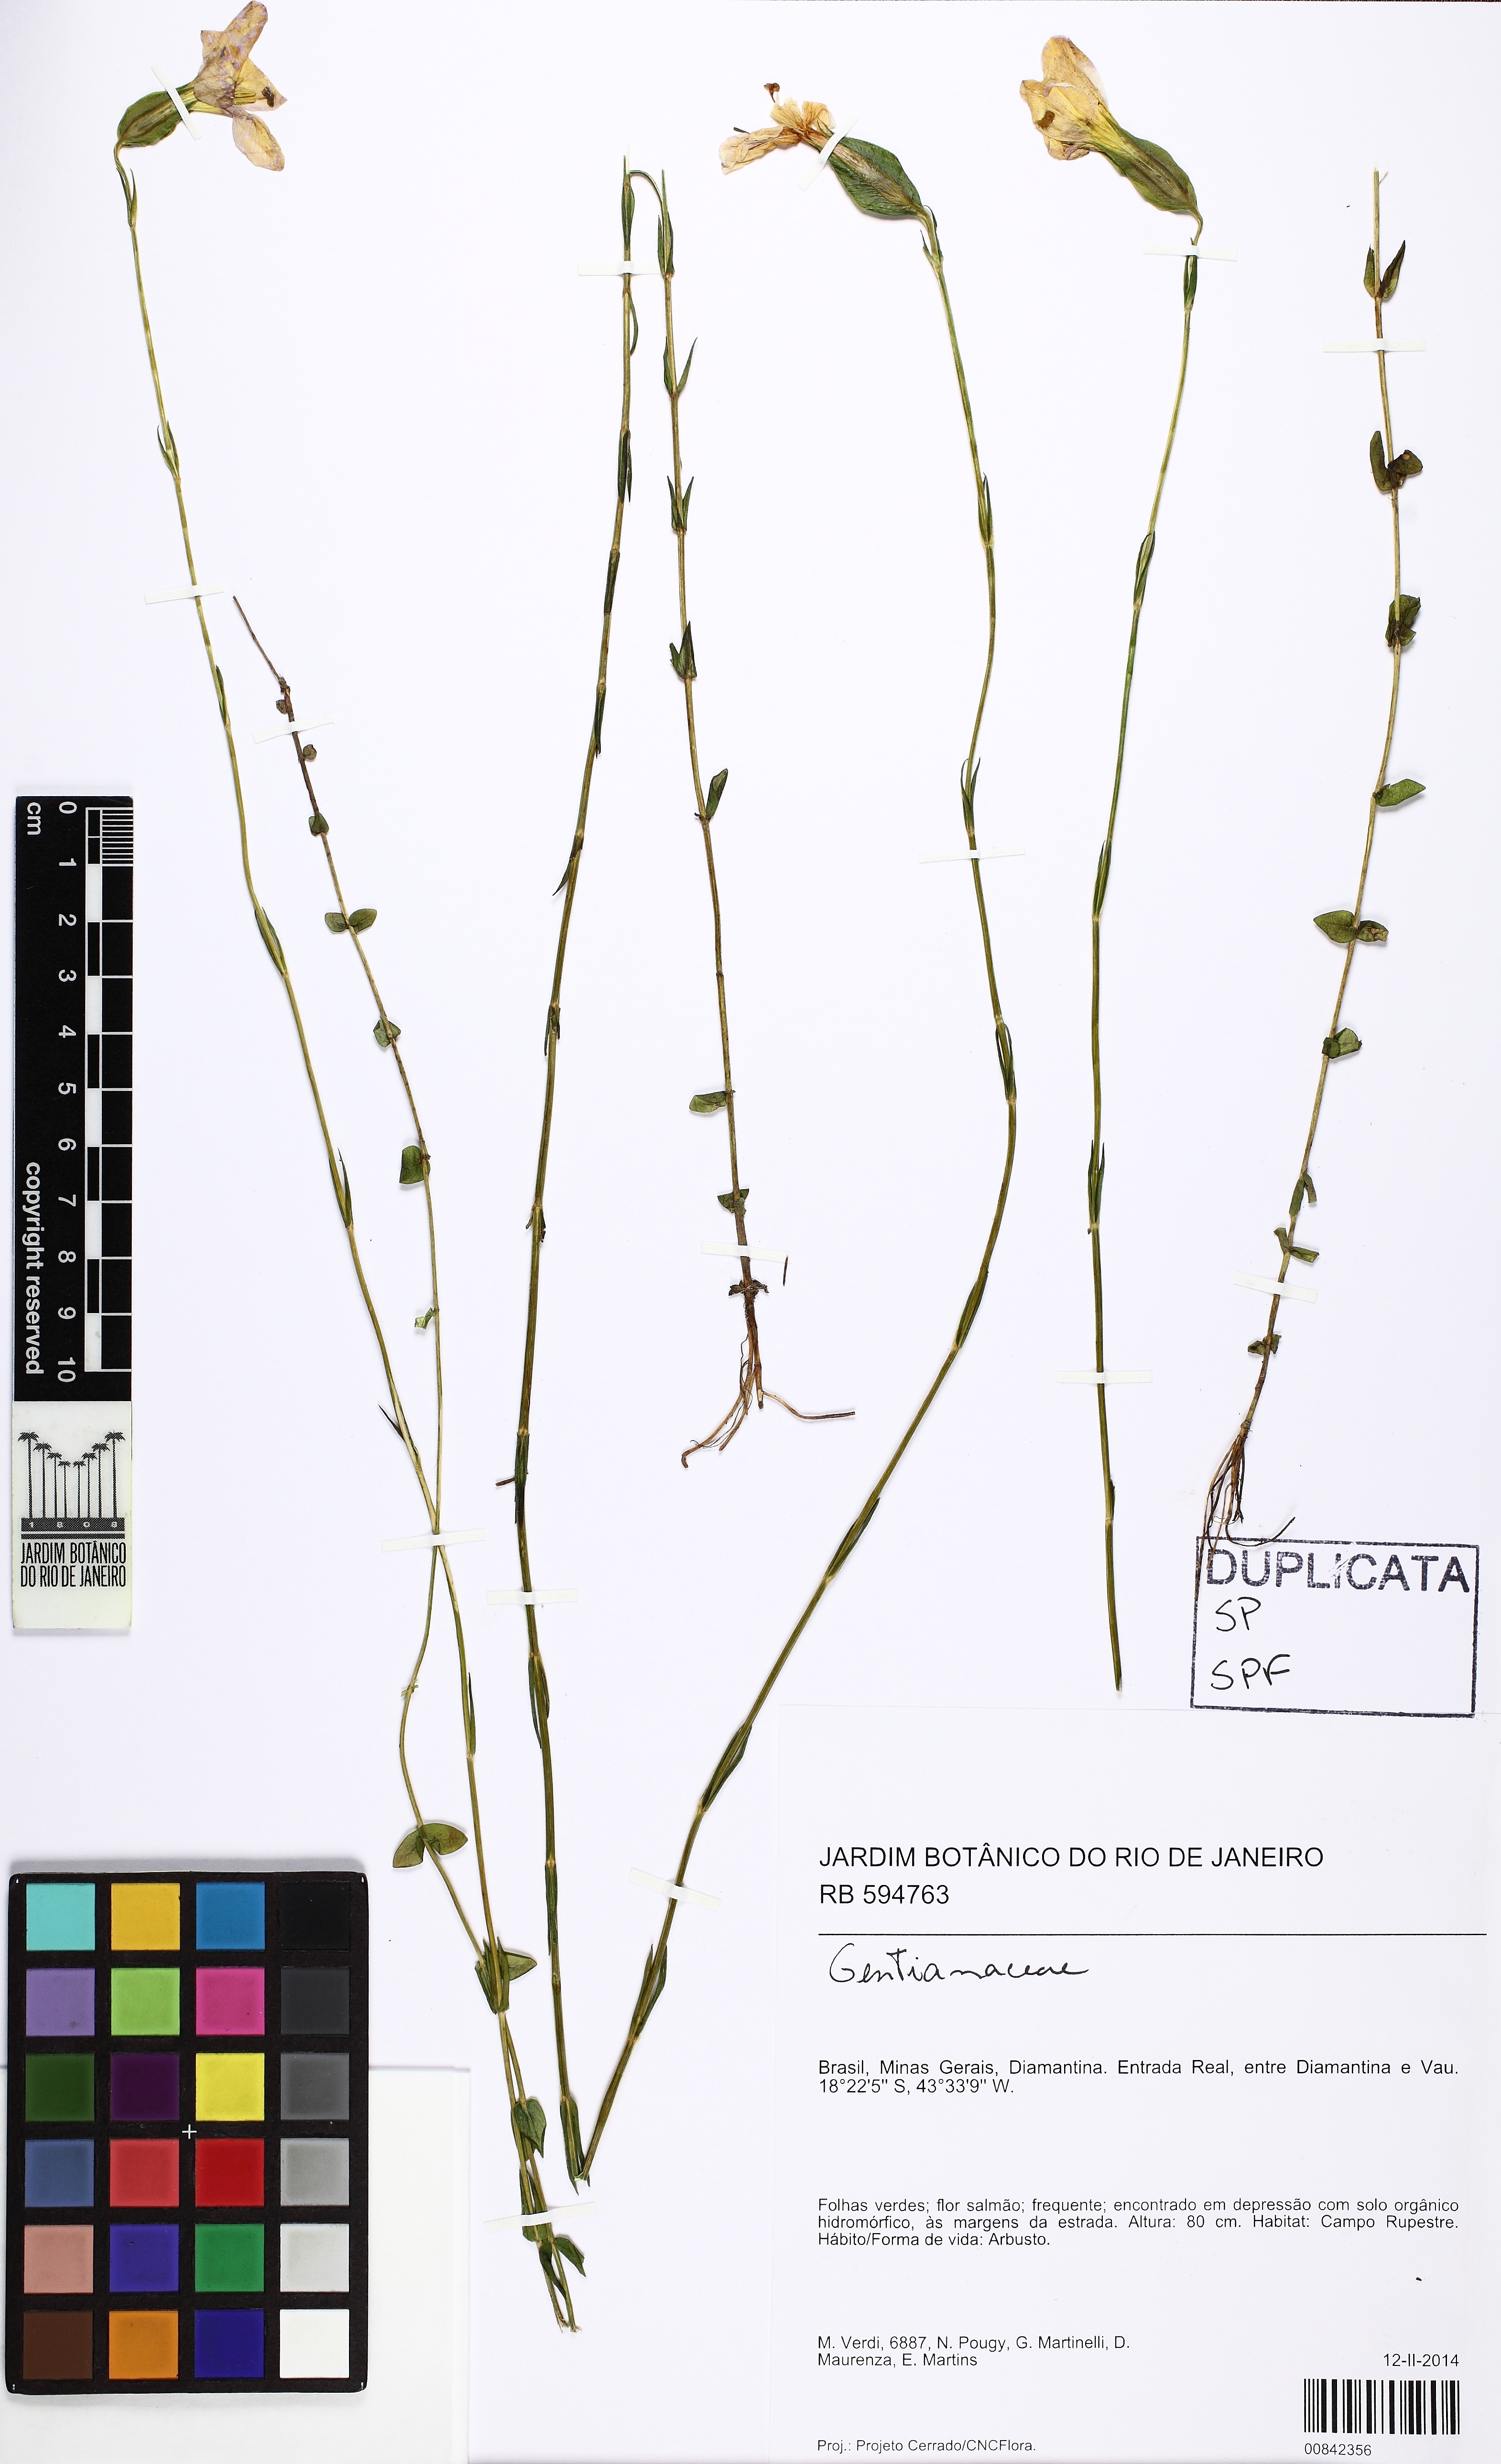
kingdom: Plantae
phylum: Tracheophyta
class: Magnoliopsida
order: Gentianales
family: Gentianaceae
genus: Schultesia
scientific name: Schultesia
